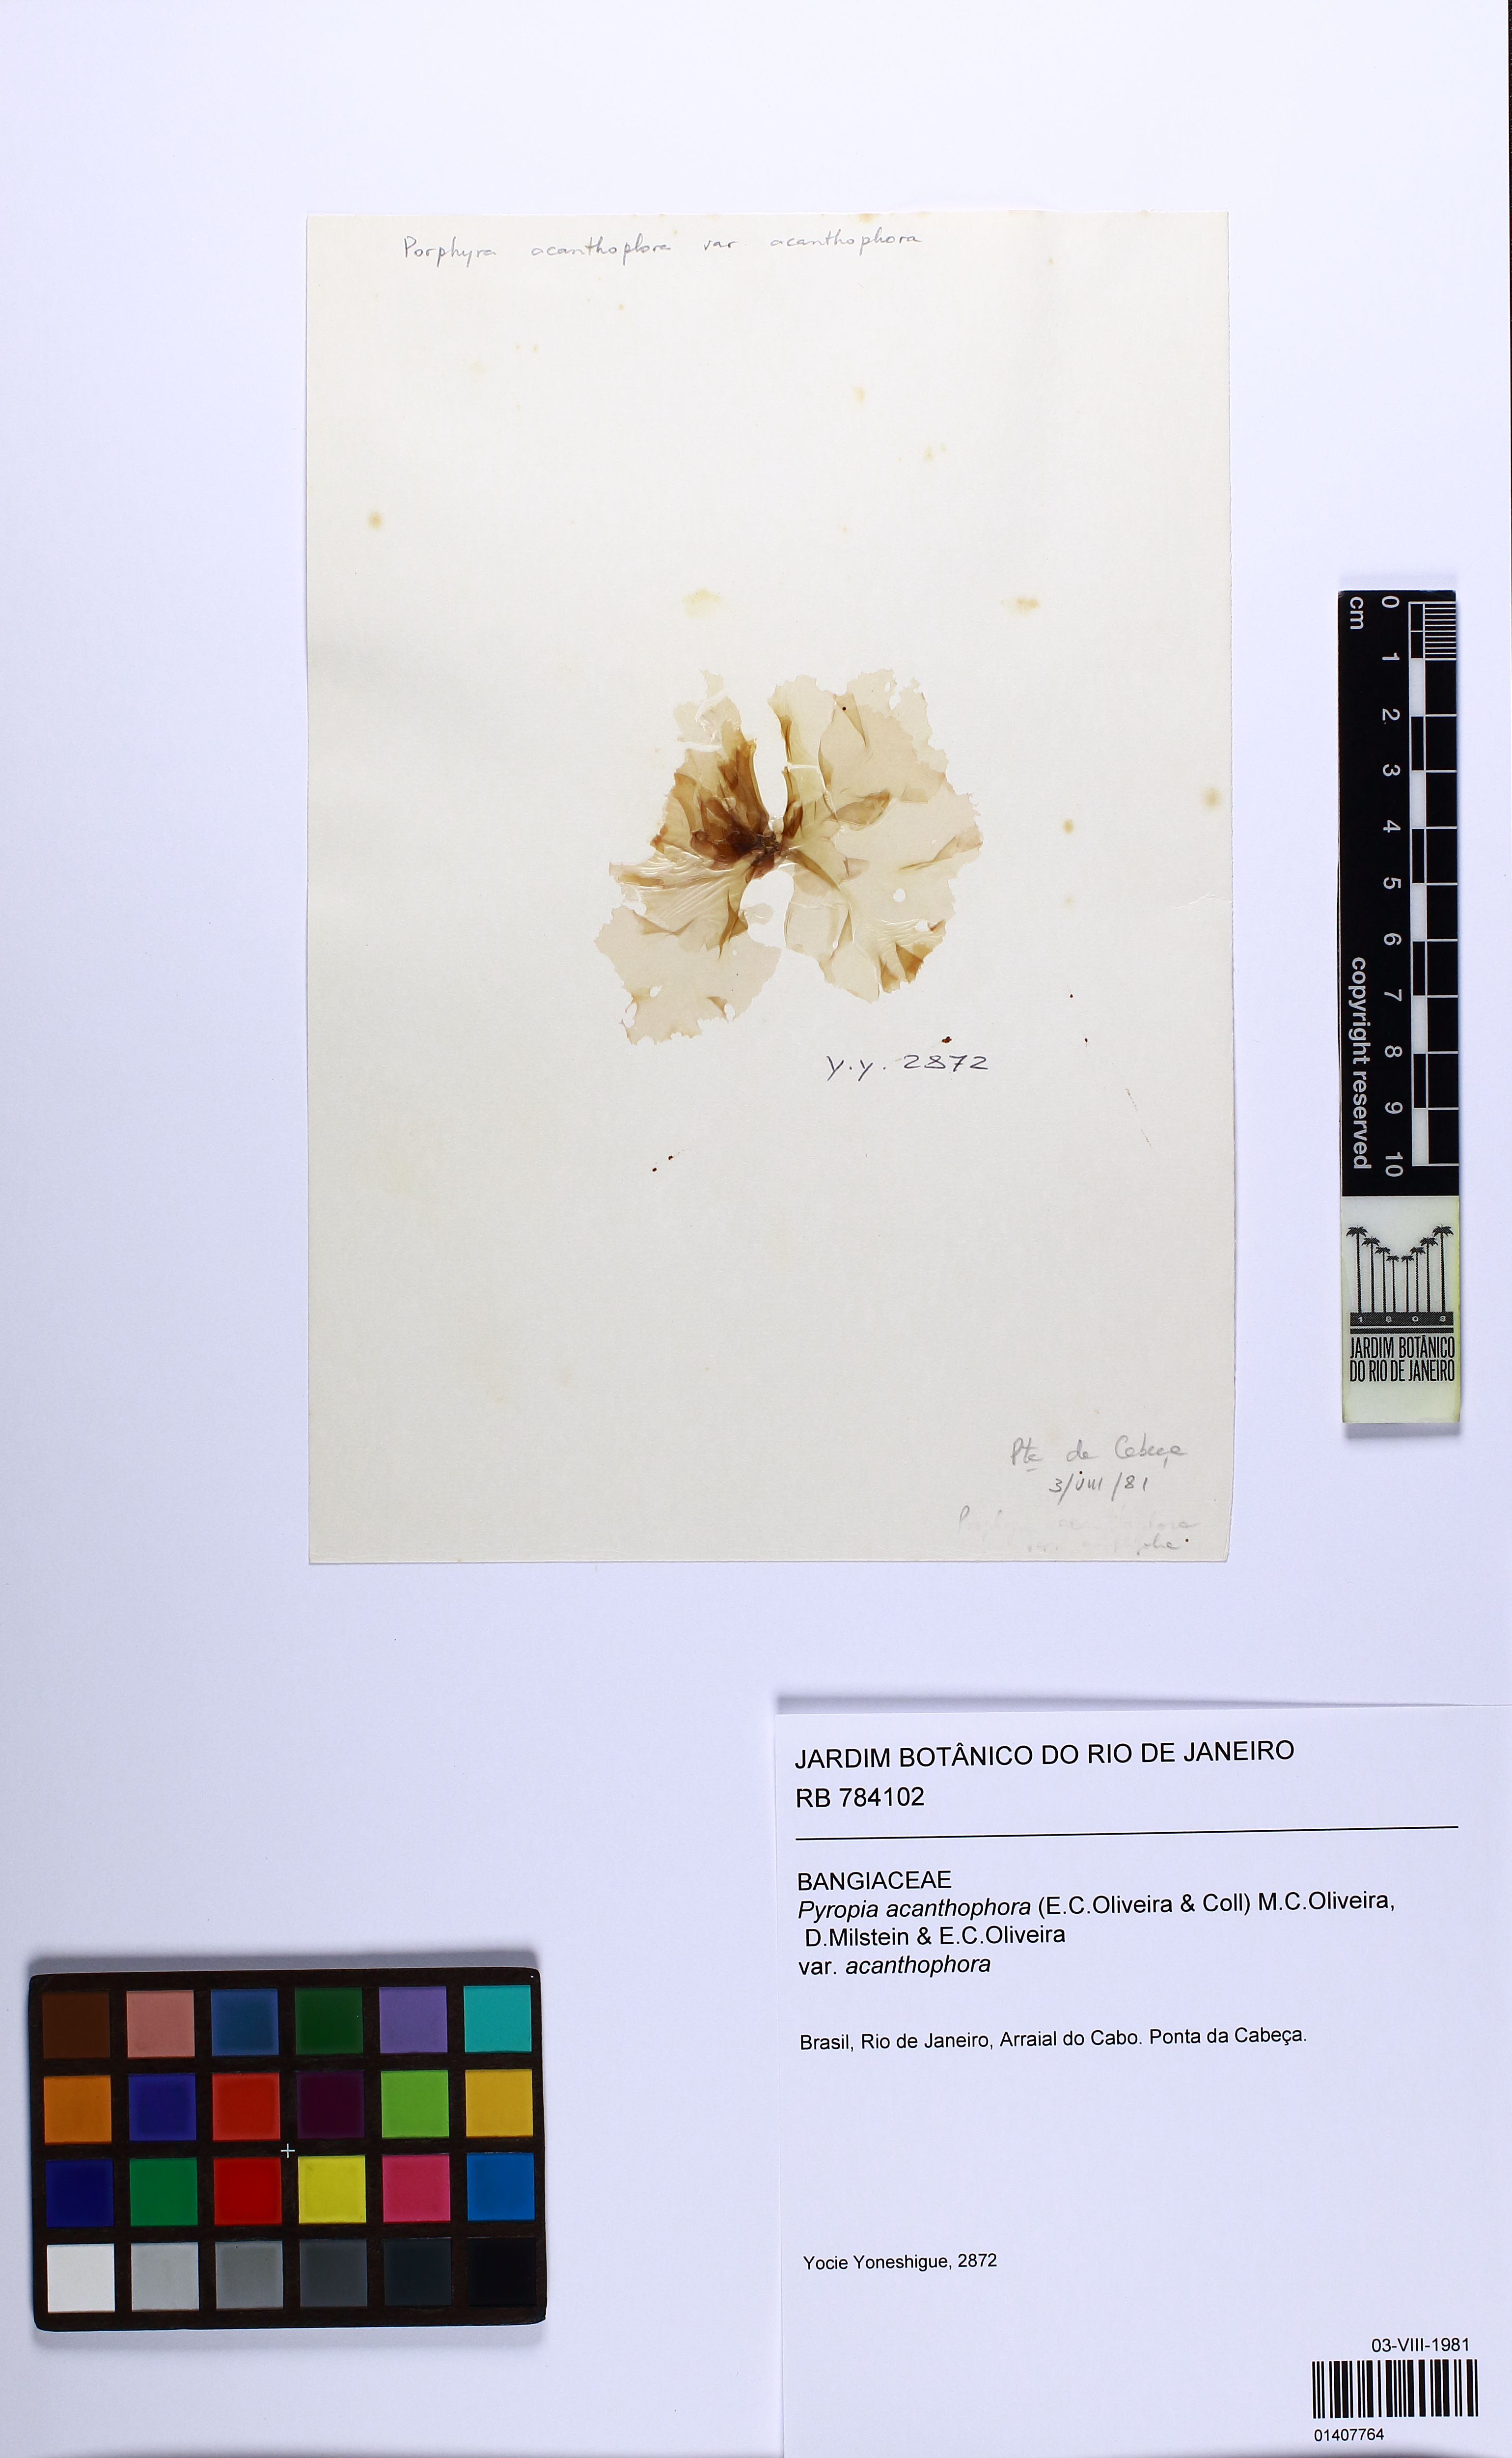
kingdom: Plantae
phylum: Rhodophyta
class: Bangiophyceae
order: Bangiales
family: Bangiaceae
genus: Pyropia
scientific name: Pyropia acanthophora
